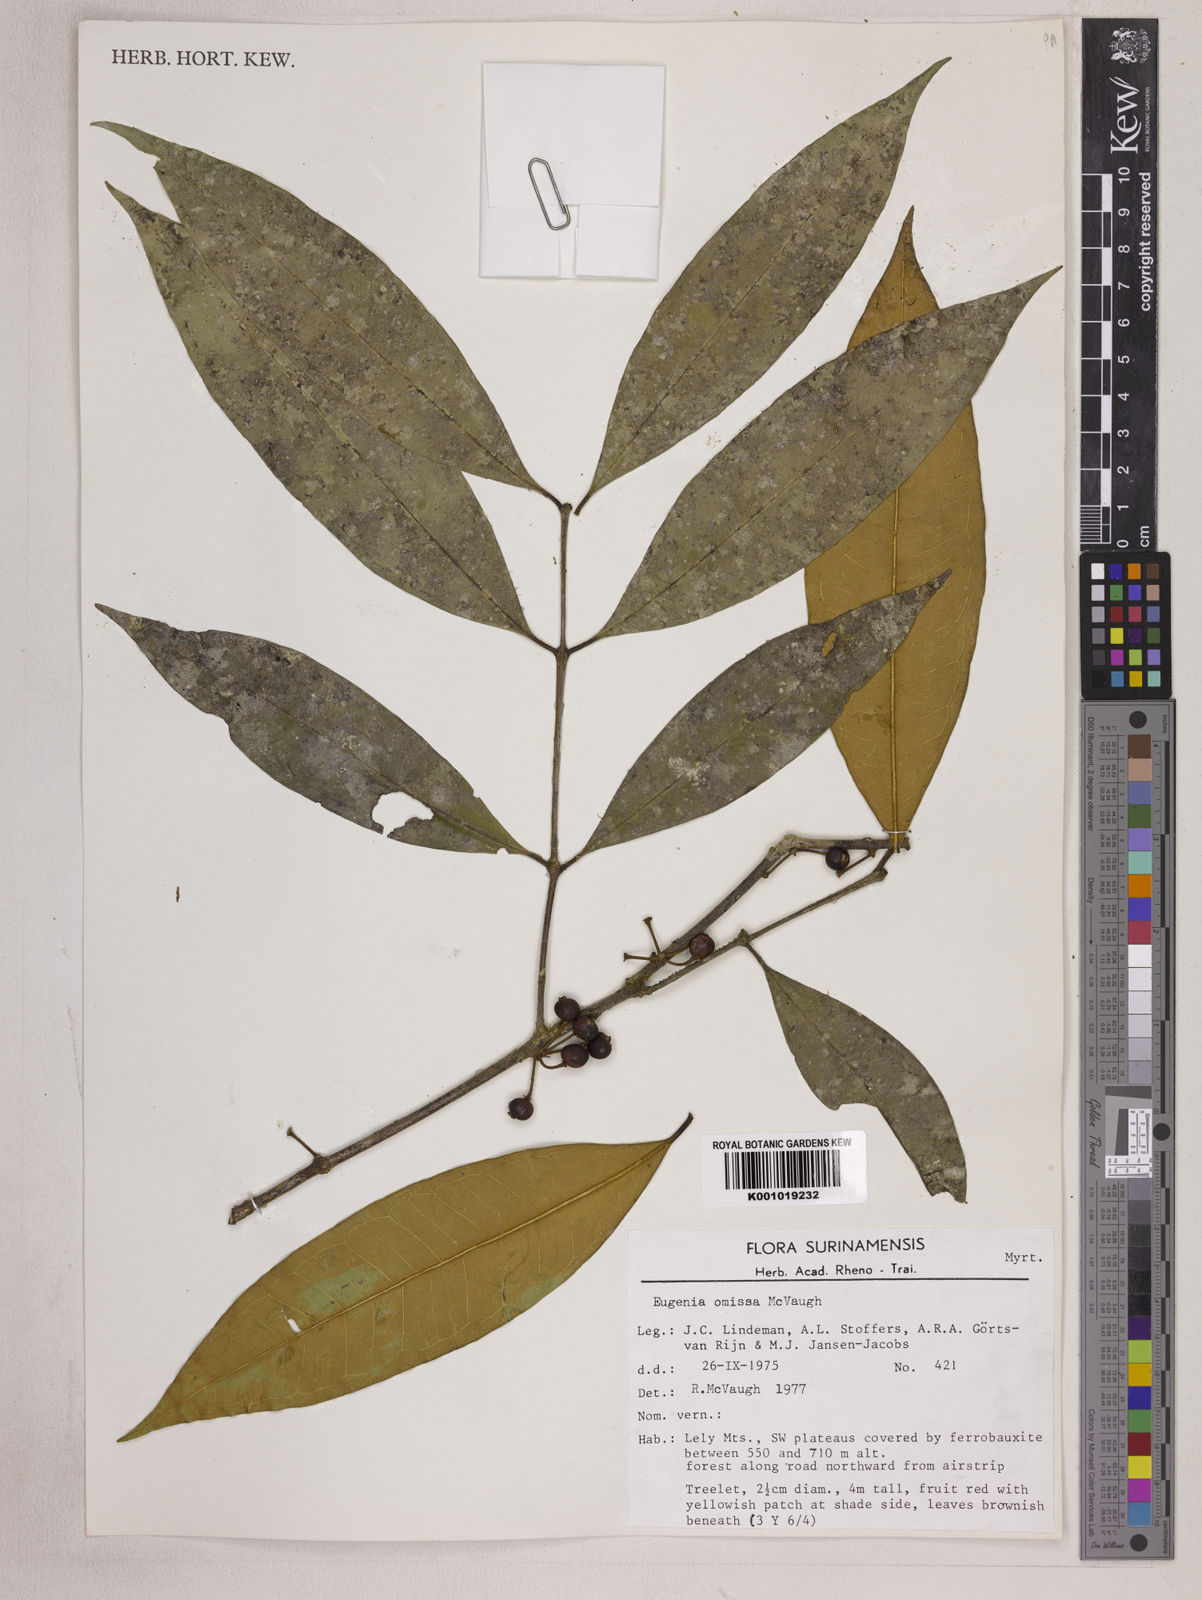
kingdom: Plantae
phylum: Tracheophyta
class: Magnoliopsida
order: Myrtales
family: Myrtaceae
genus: Eugenia
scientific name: Eugenia omissa
